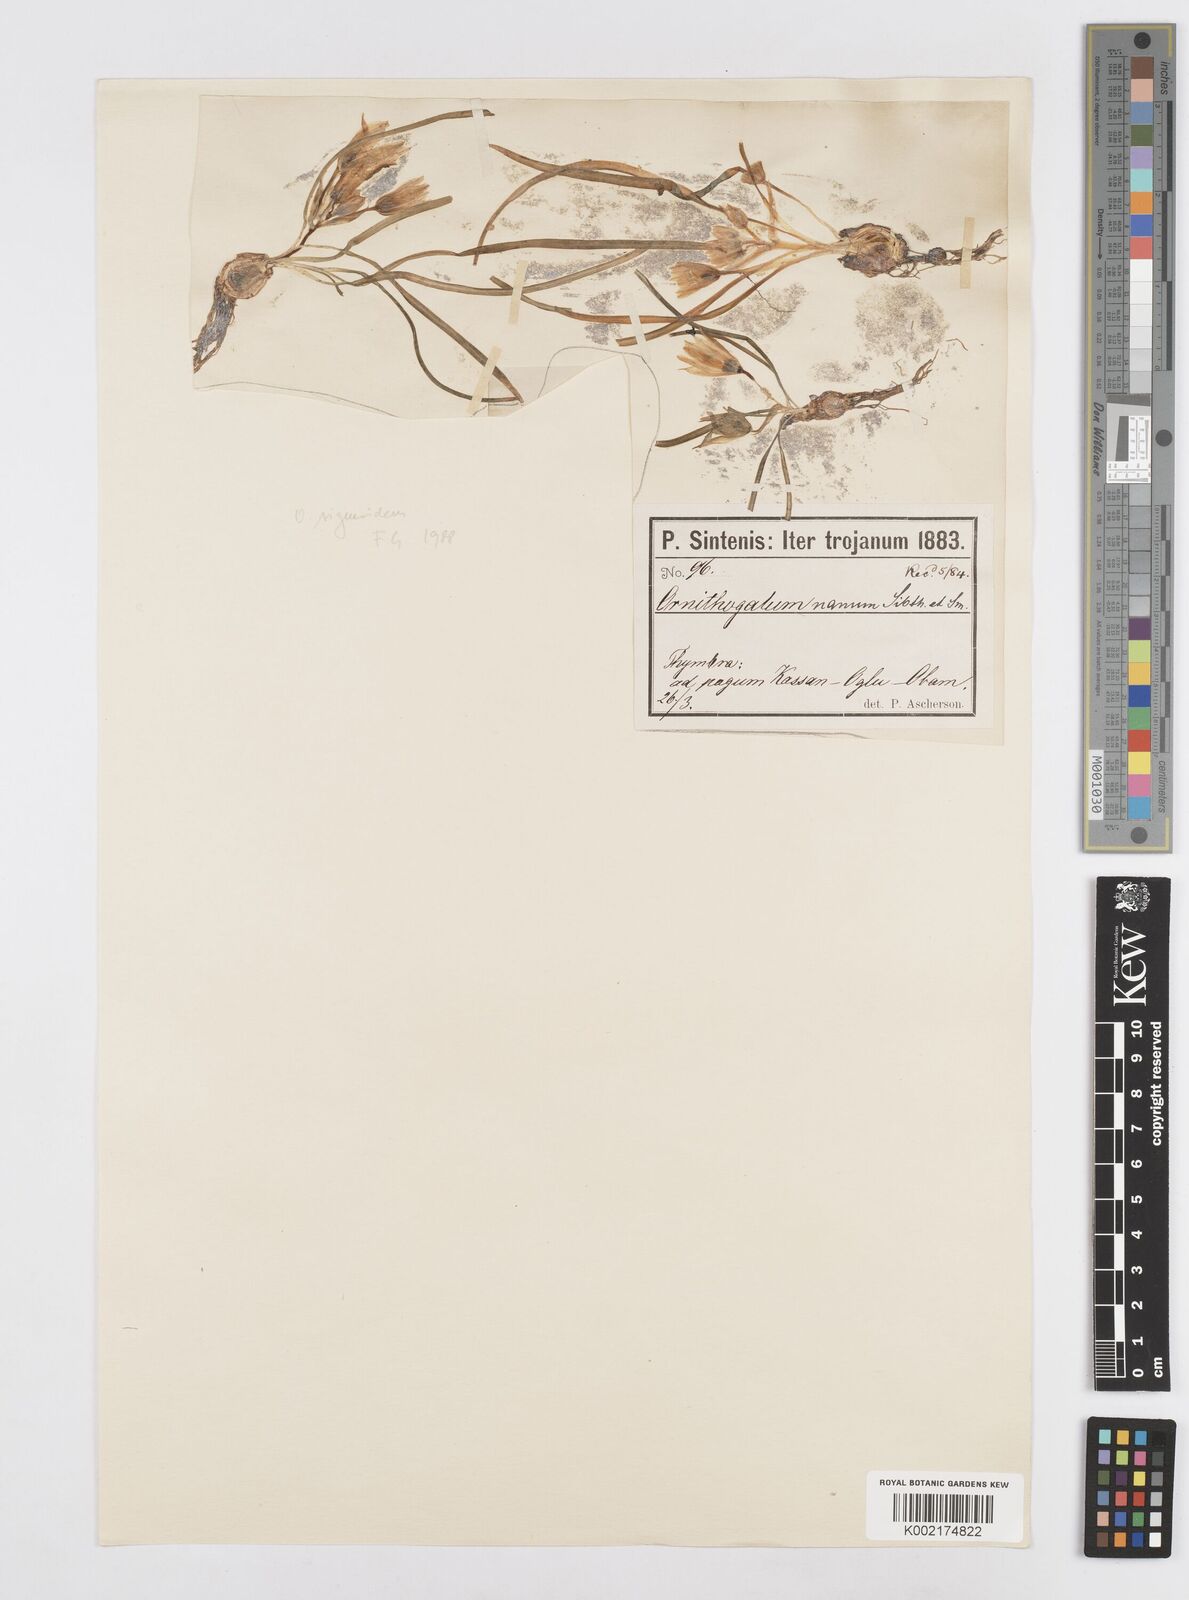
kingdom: Plantae
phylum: Tracheophyta
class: Liliopsida
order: Asparagales
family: Asparagaceae
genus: Ornithogalum
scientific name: Ornithogalum sigmoideum
